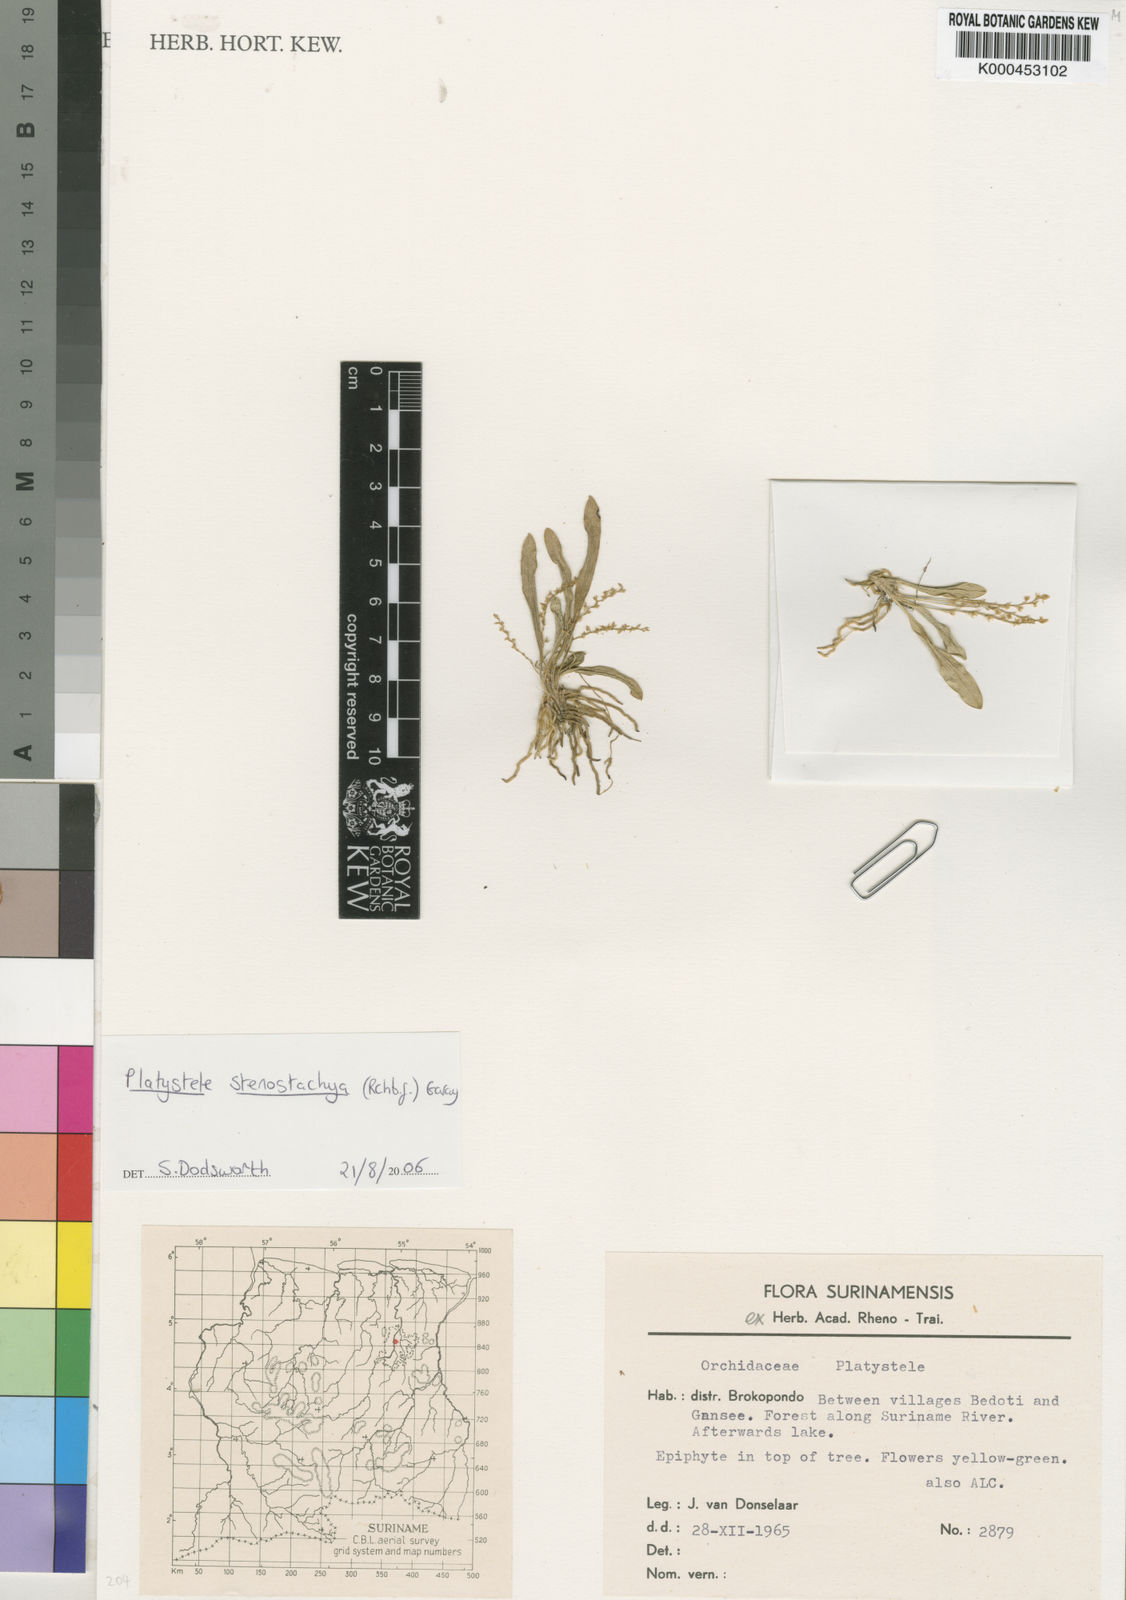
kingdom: Plantae
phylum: Tracheophyta
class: Liliopsida
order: Asparagales
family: Orchidaceae
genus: Platystele
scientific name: Platystele stenostachya
